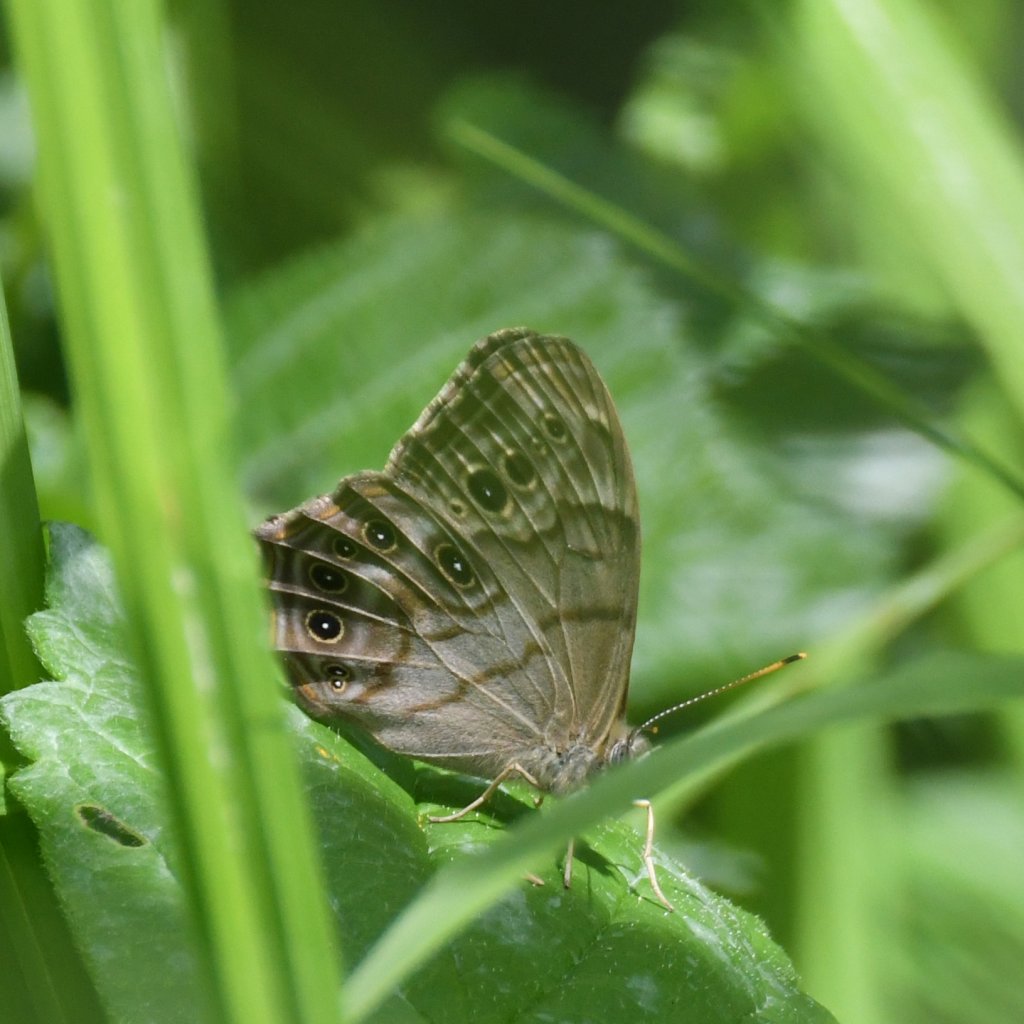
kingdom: Animalia
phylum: Arthropoda
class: Insecta
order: Lepidoptera
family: Nymphalidae
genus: Lethe
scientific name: Lethe anthedon
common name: Northern Pearly-Eye
